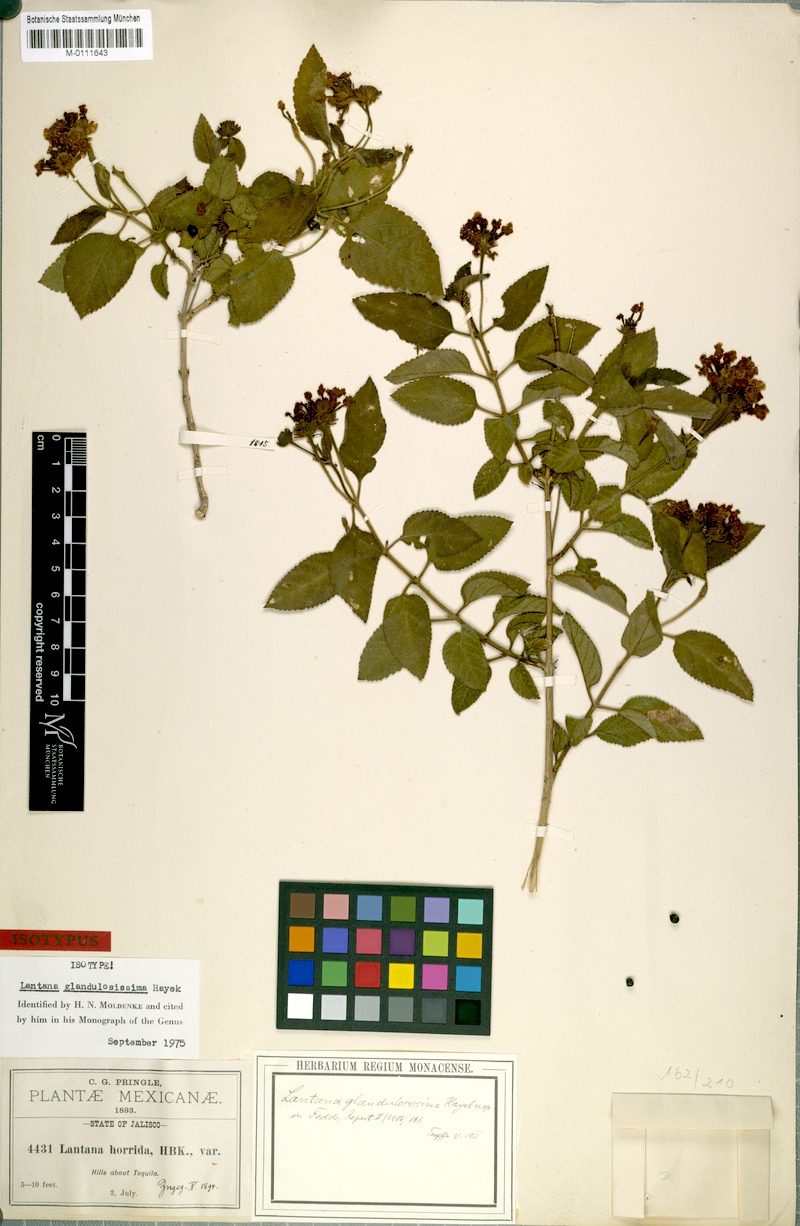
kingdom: Plantae
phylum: Tracheophyta
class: Magnoliopsida
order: Lamiales
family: Verbenaceae
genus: Lantana
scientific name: Lantana camara
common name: Lantana
